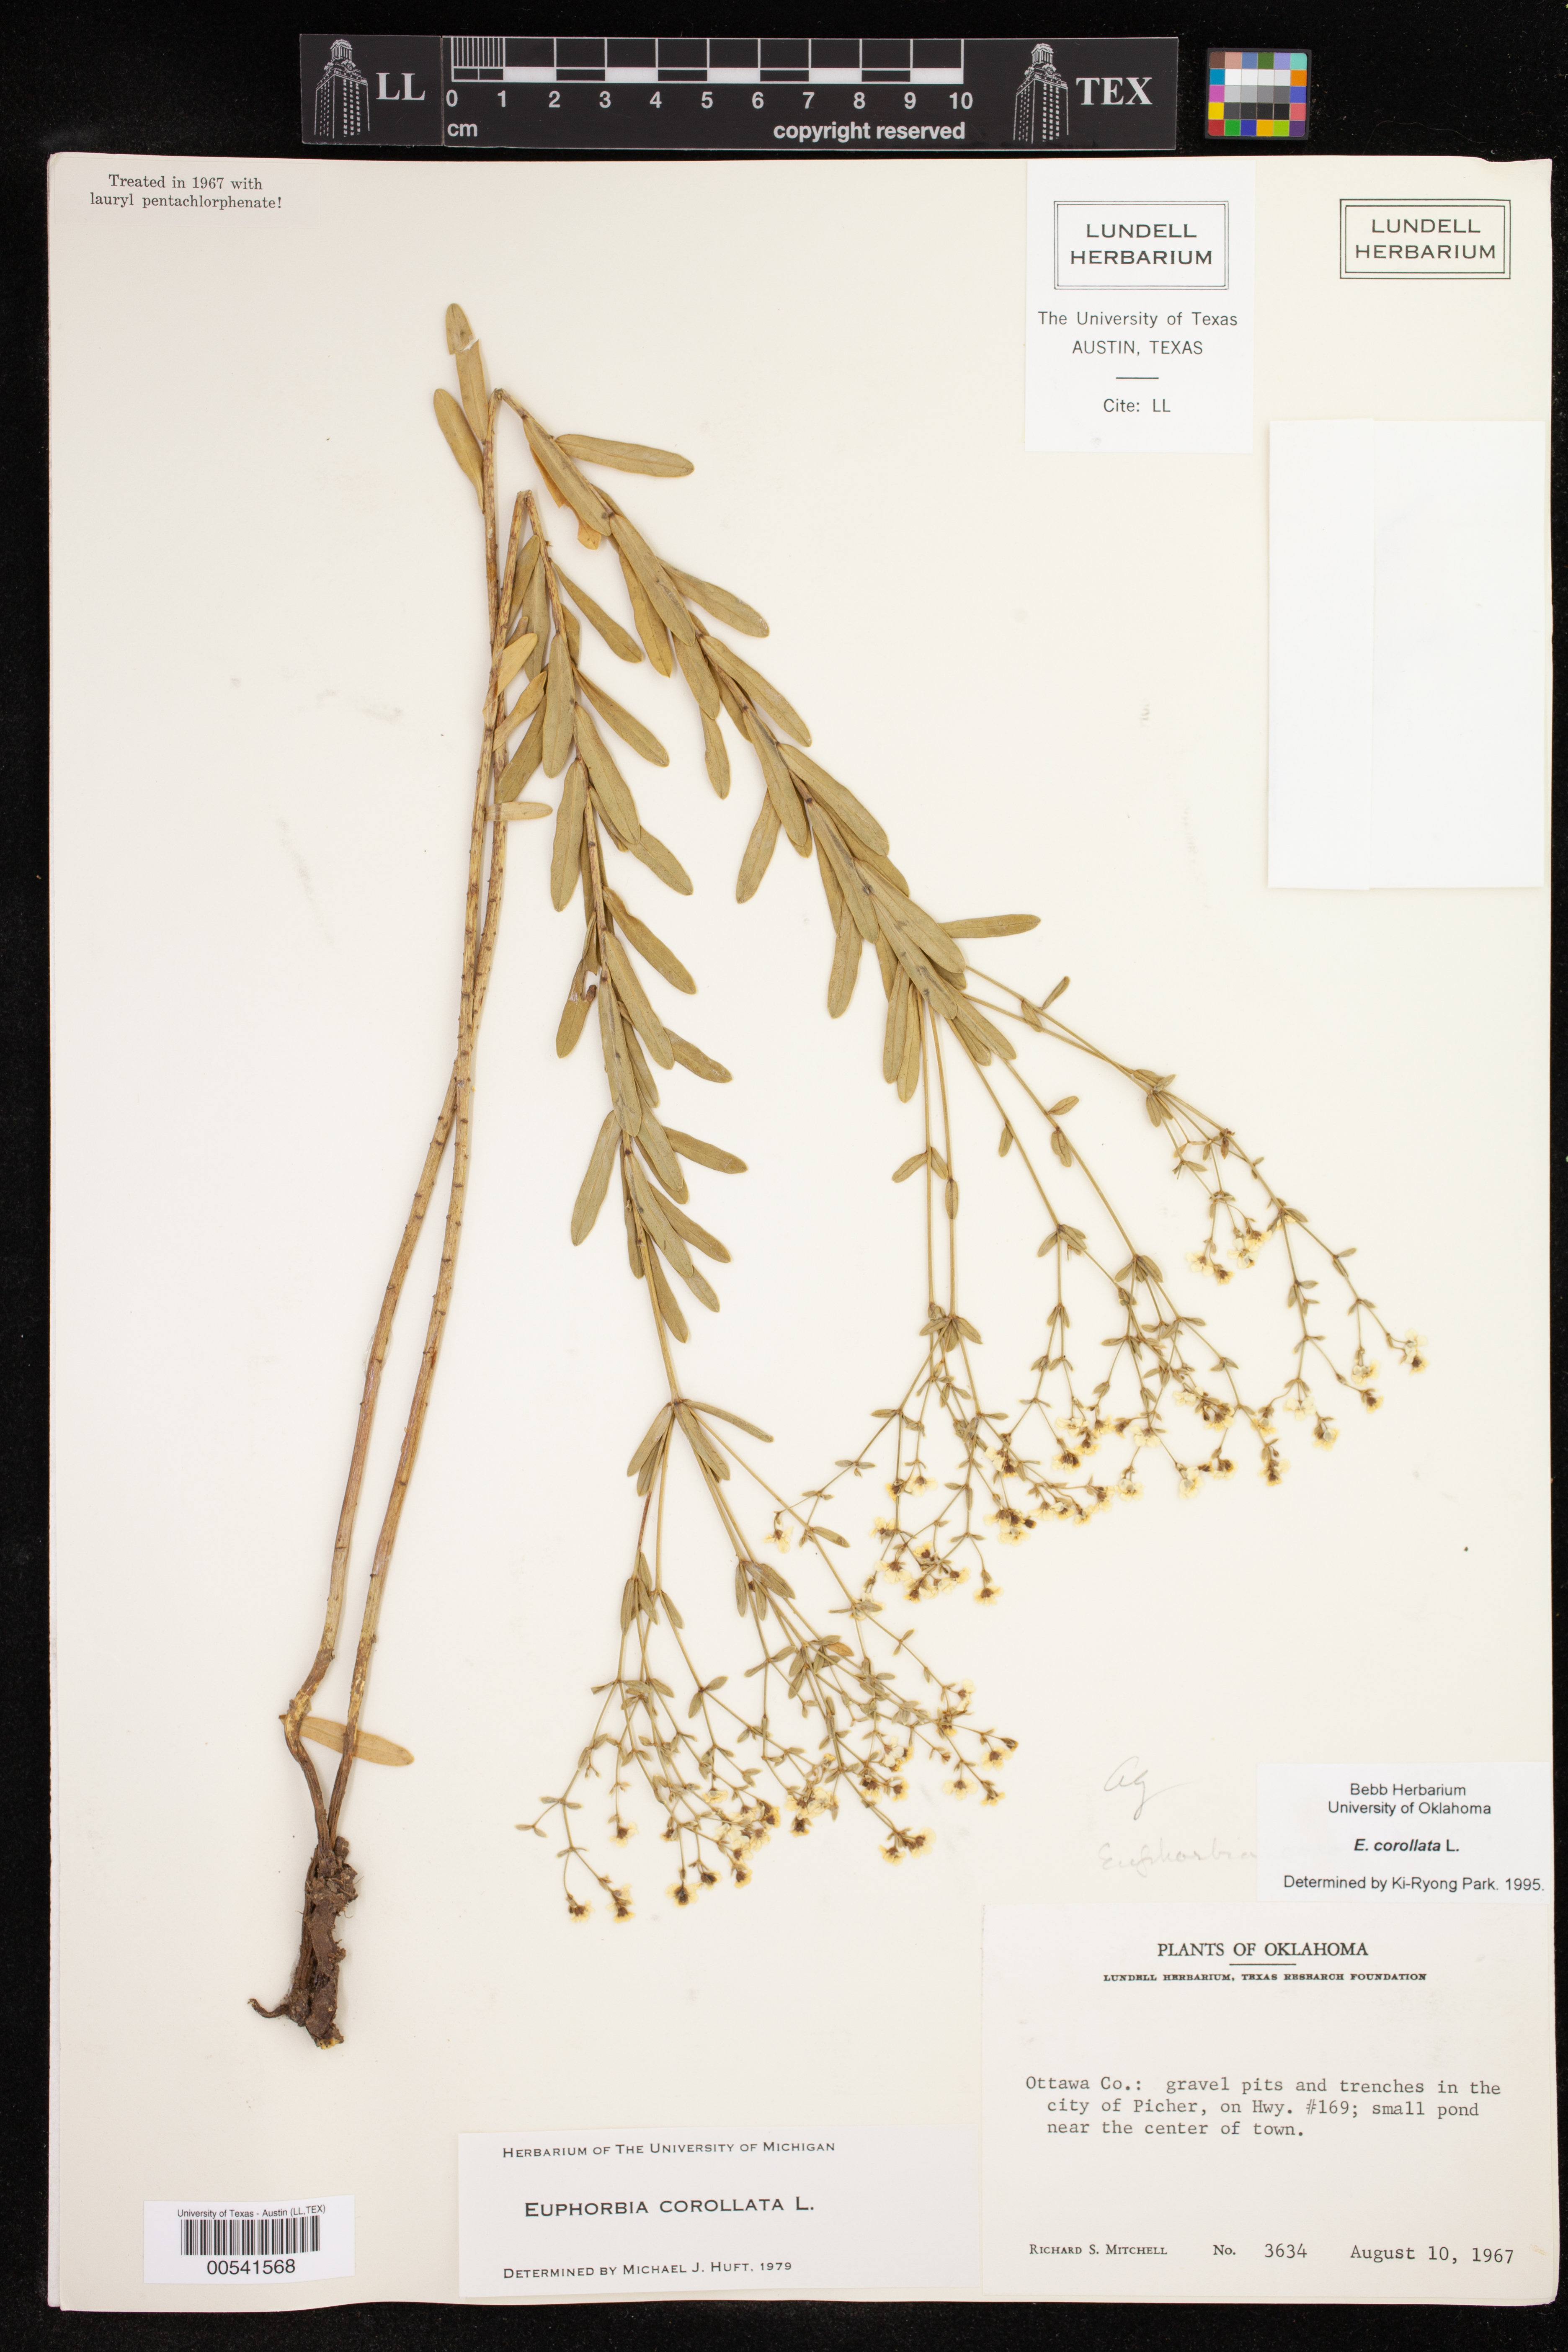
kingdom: Plantae
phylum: Tracheophyta
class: Magnoliopsida
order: Malpighiales
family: Euphorbiaceae
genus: Euphorbia
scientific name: Euphorbia corollata
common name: Flowering spurge
